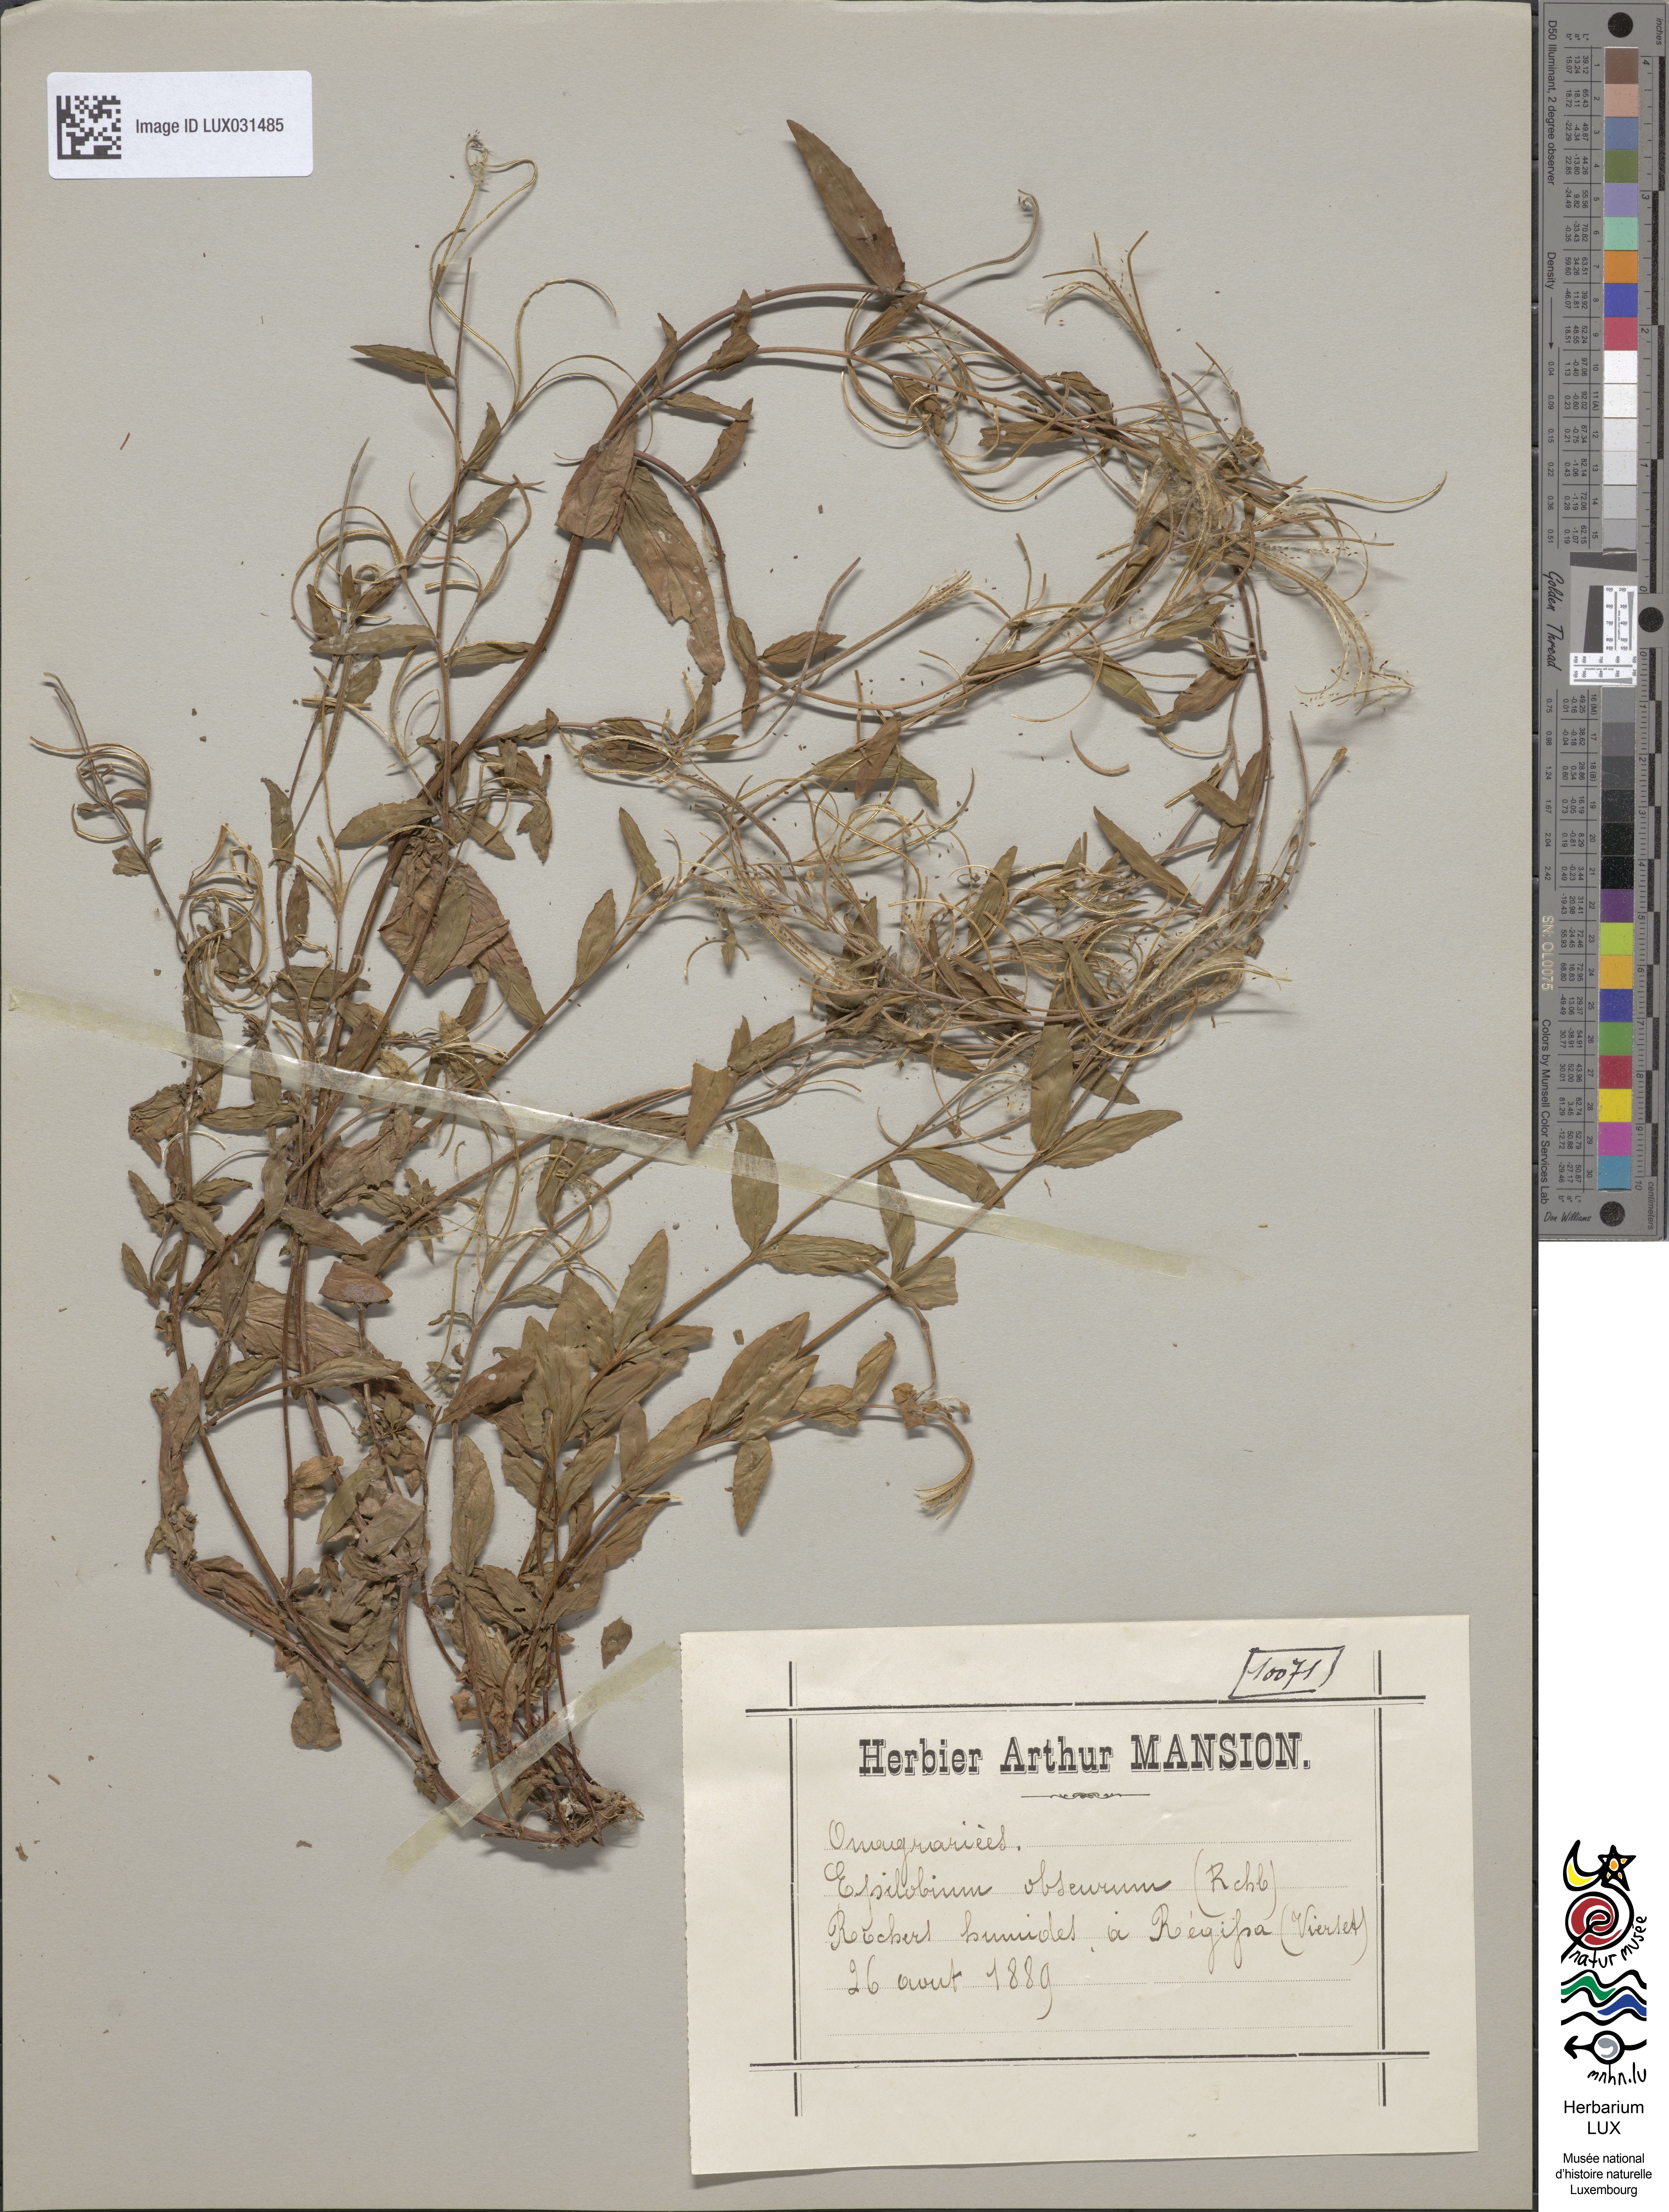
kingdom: Plantae
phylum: Tracheophyta
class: Magnoliopsida
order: Myrtales
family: Onagraceae
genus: Epilobium
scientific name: Epilobium obscurum
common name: Short-fruited willowherb
